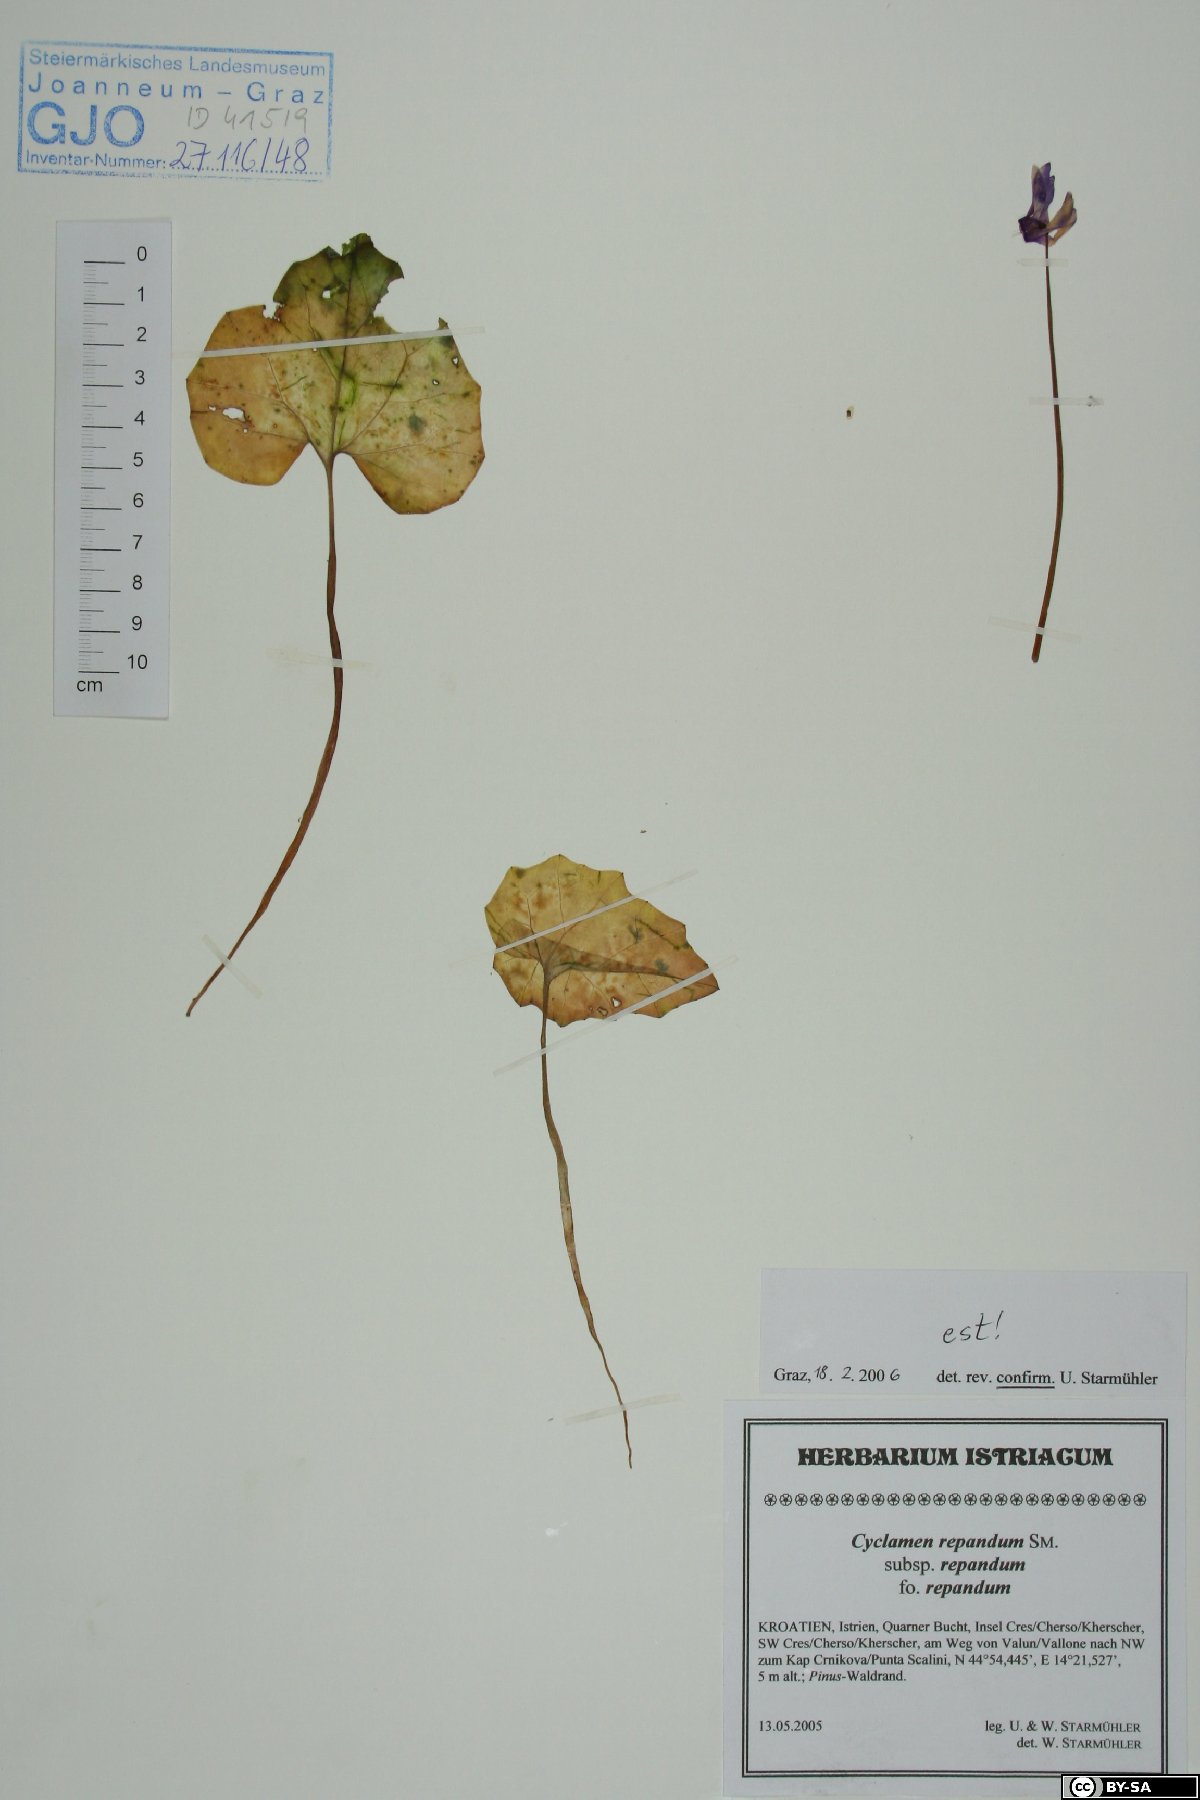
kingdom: Plantae
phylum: Tracheophyta
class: Magnoliopsida
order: Ericales
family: Primulaceae
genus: Cyclamen
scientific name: Cyclamen repandum
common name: Spring sowbread
